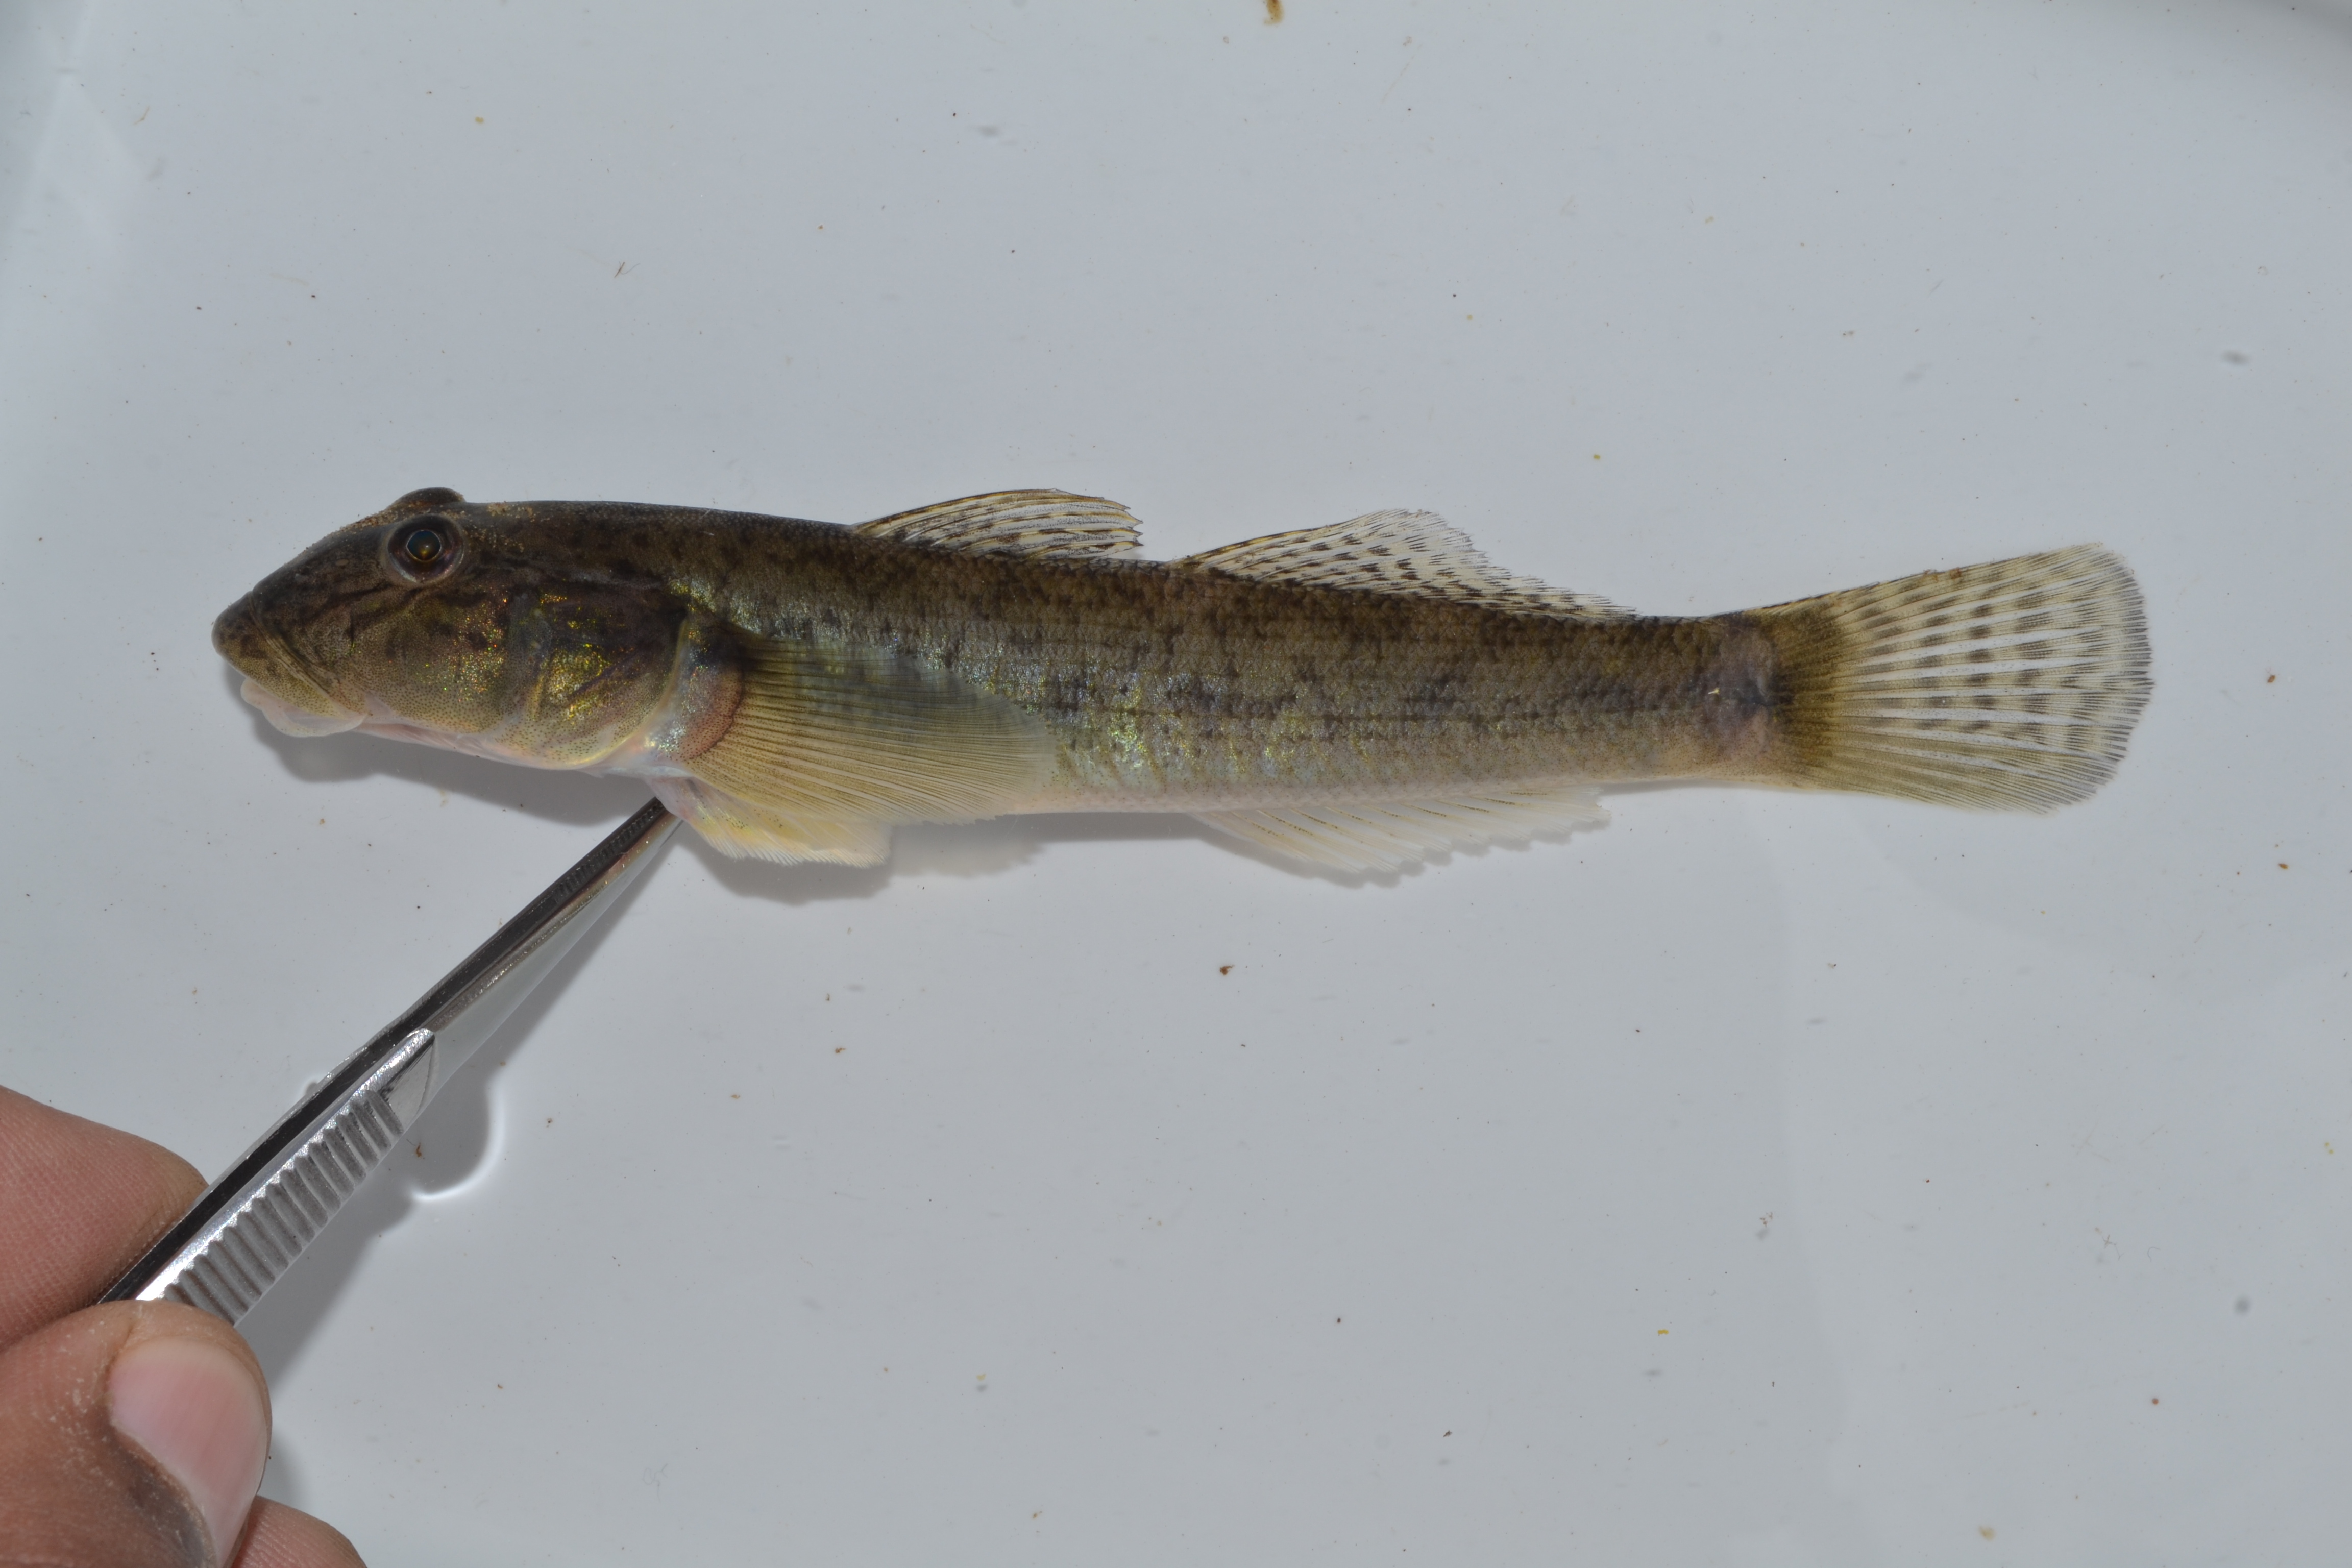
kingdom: Animalia
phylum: Chordata
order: Perciformes
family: Gobiidae
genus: Glossogobius
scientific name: Glossogobius
